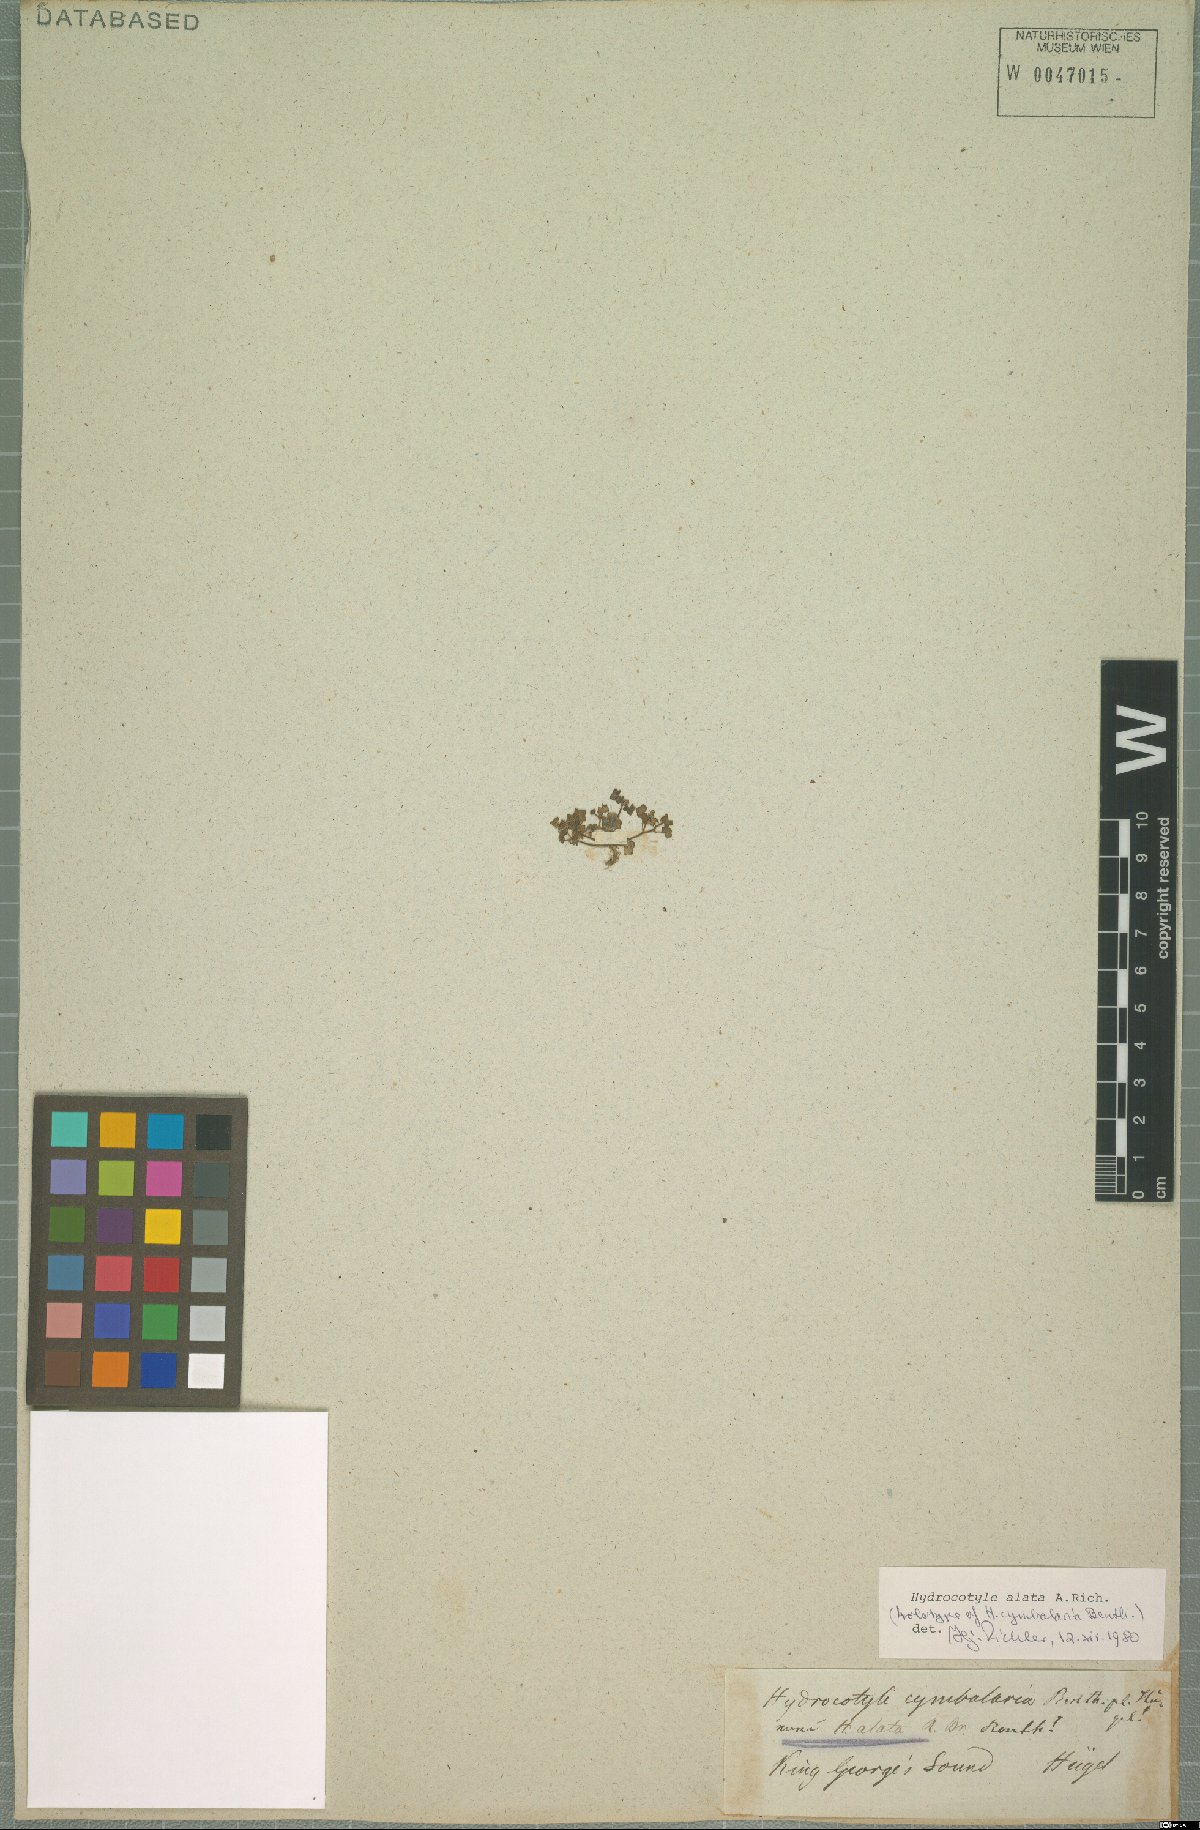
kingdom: Plantae
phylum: Tracheophyta
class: Magnoliopsida
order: Apiales
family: Araliaceae
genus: Hydrocotyle
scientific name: Hydrocotyle alata
